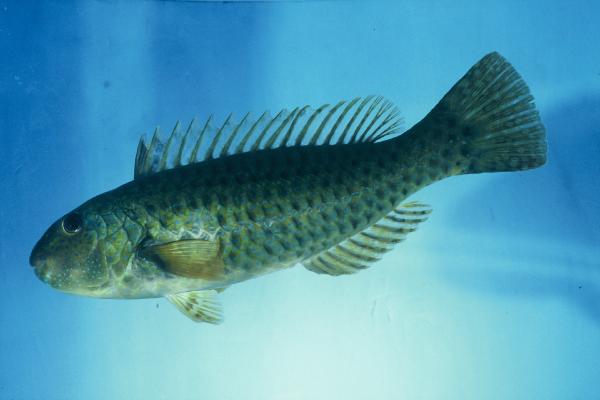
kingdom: Animalia
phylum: Chordata
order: Perciformes
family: Scaridae
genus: Leptoscarus
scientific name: Leptoscarus vaigiensis
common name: Marbled parrotfish
